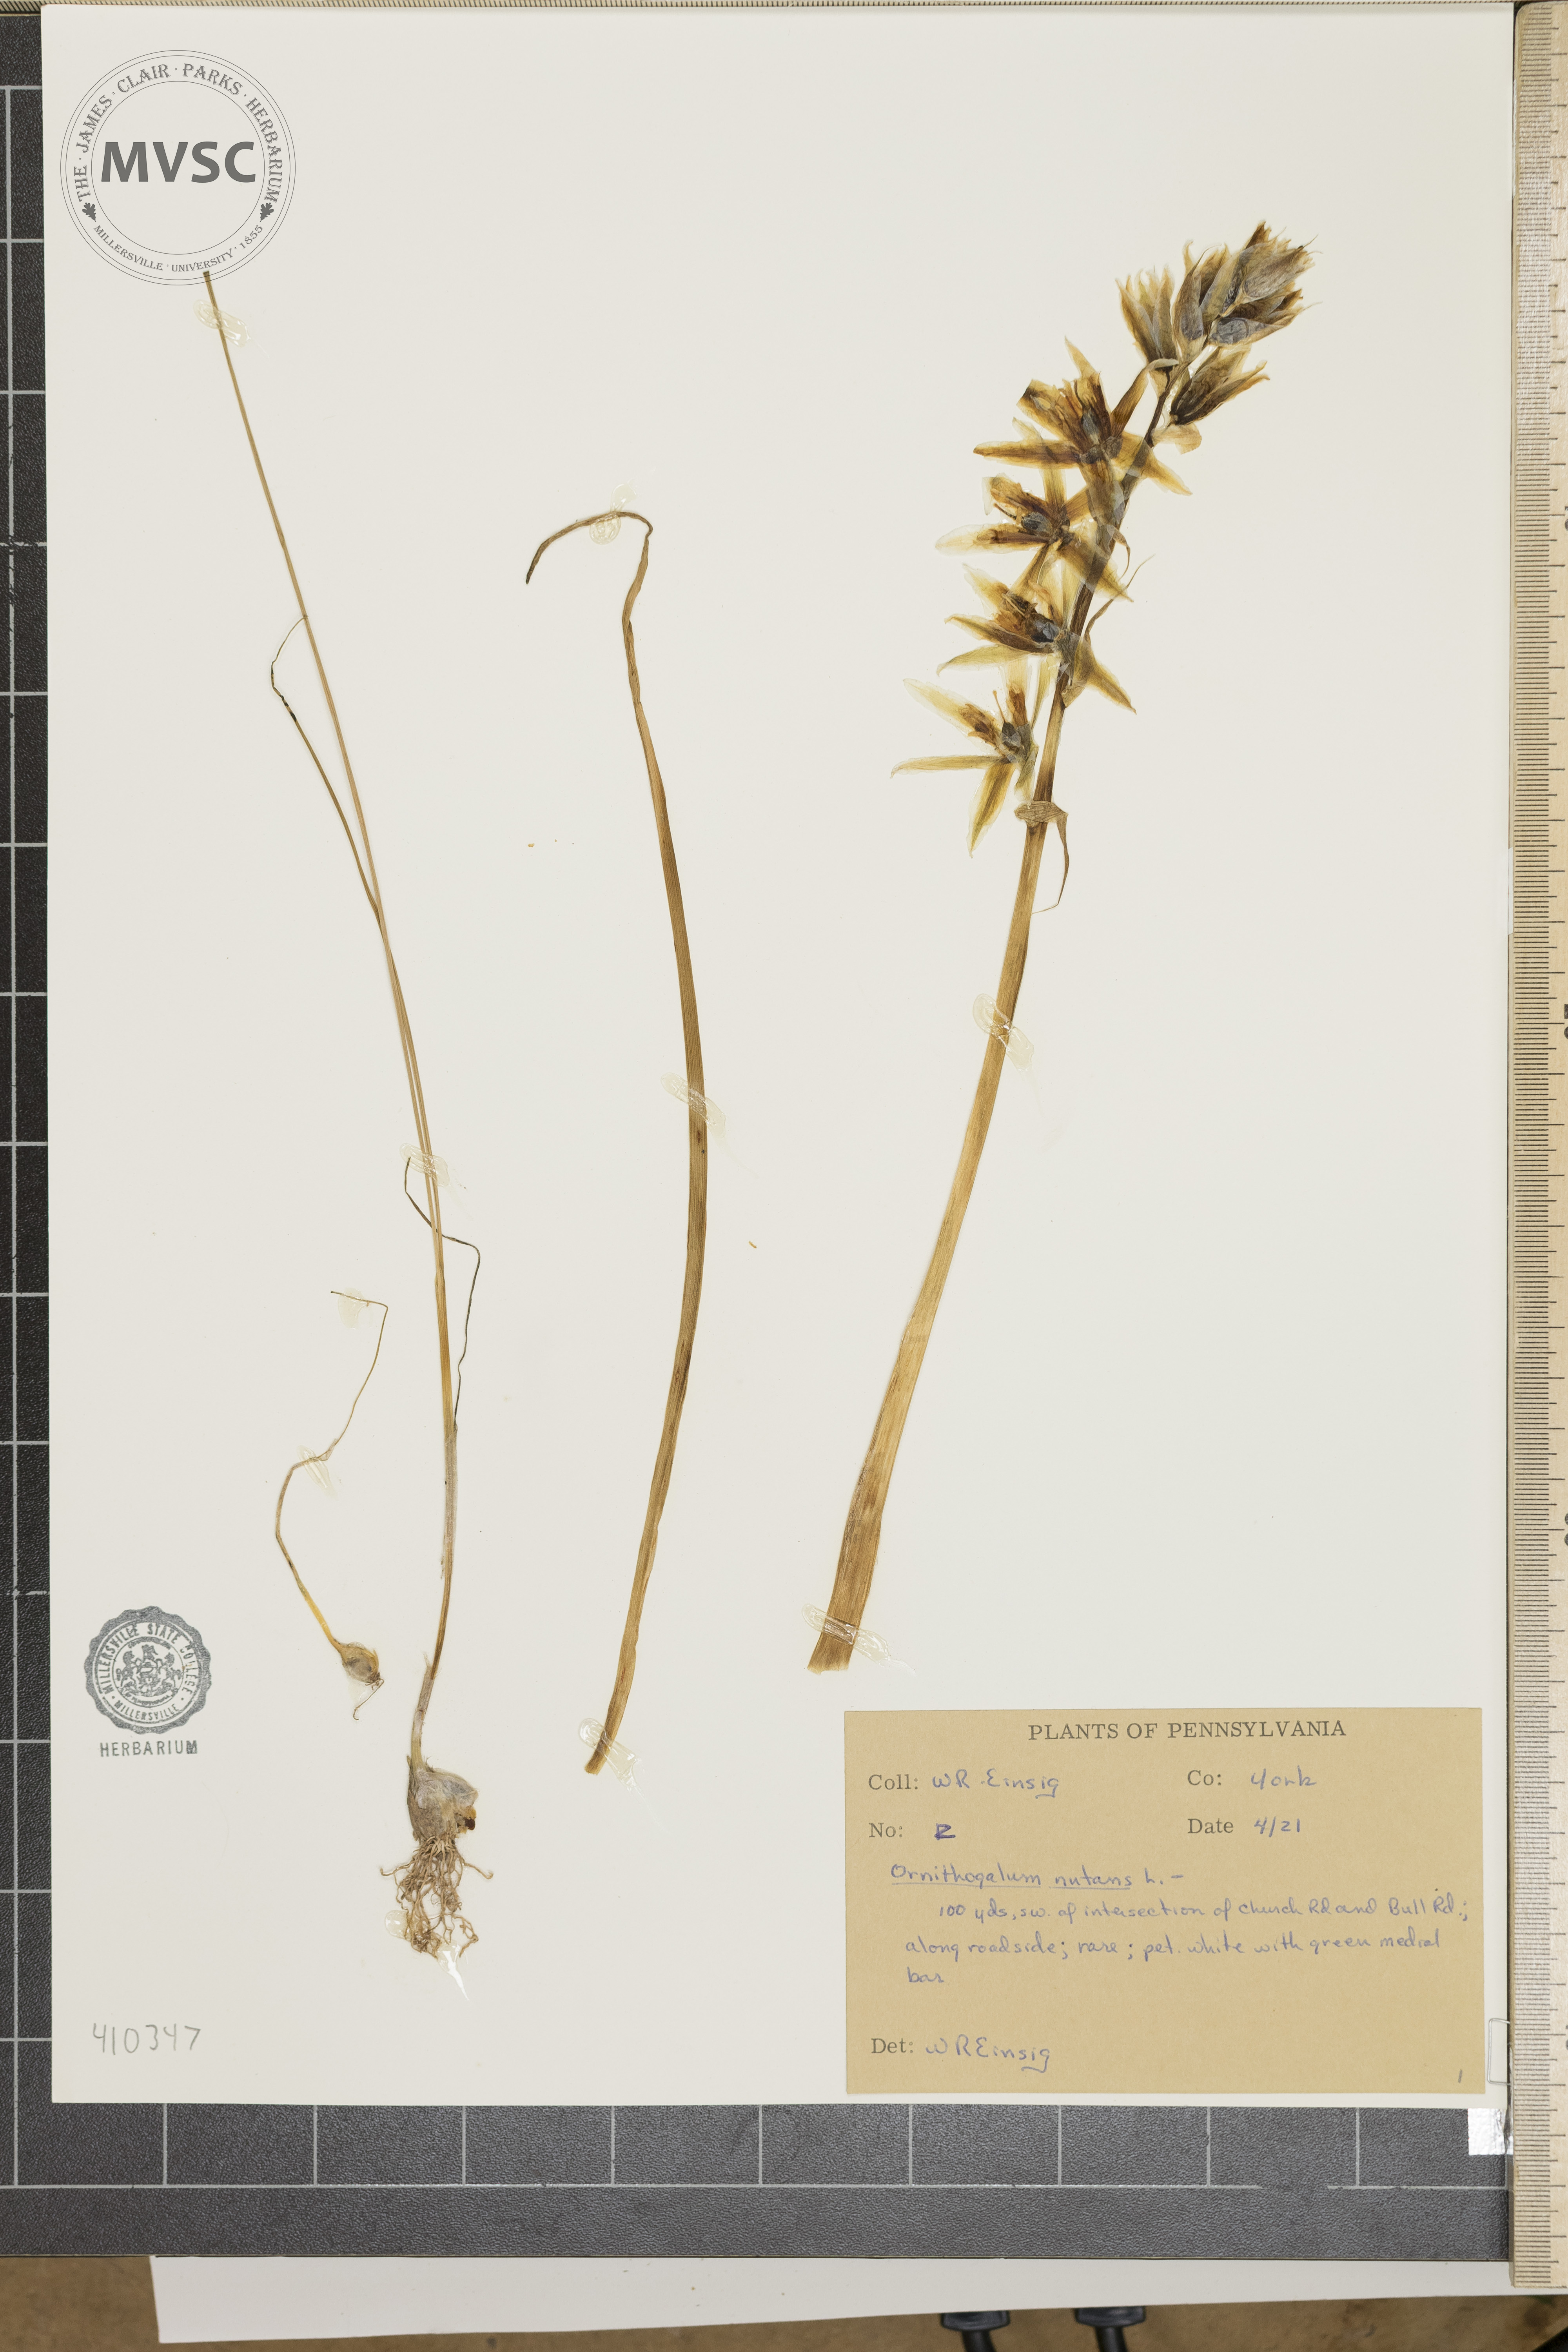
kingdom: Plantae
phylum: Tracheophyta
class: Liliopsida
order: Asparagales
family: Asparagaceae
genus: Ornithogalum
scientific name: Ornithogalum nutans
